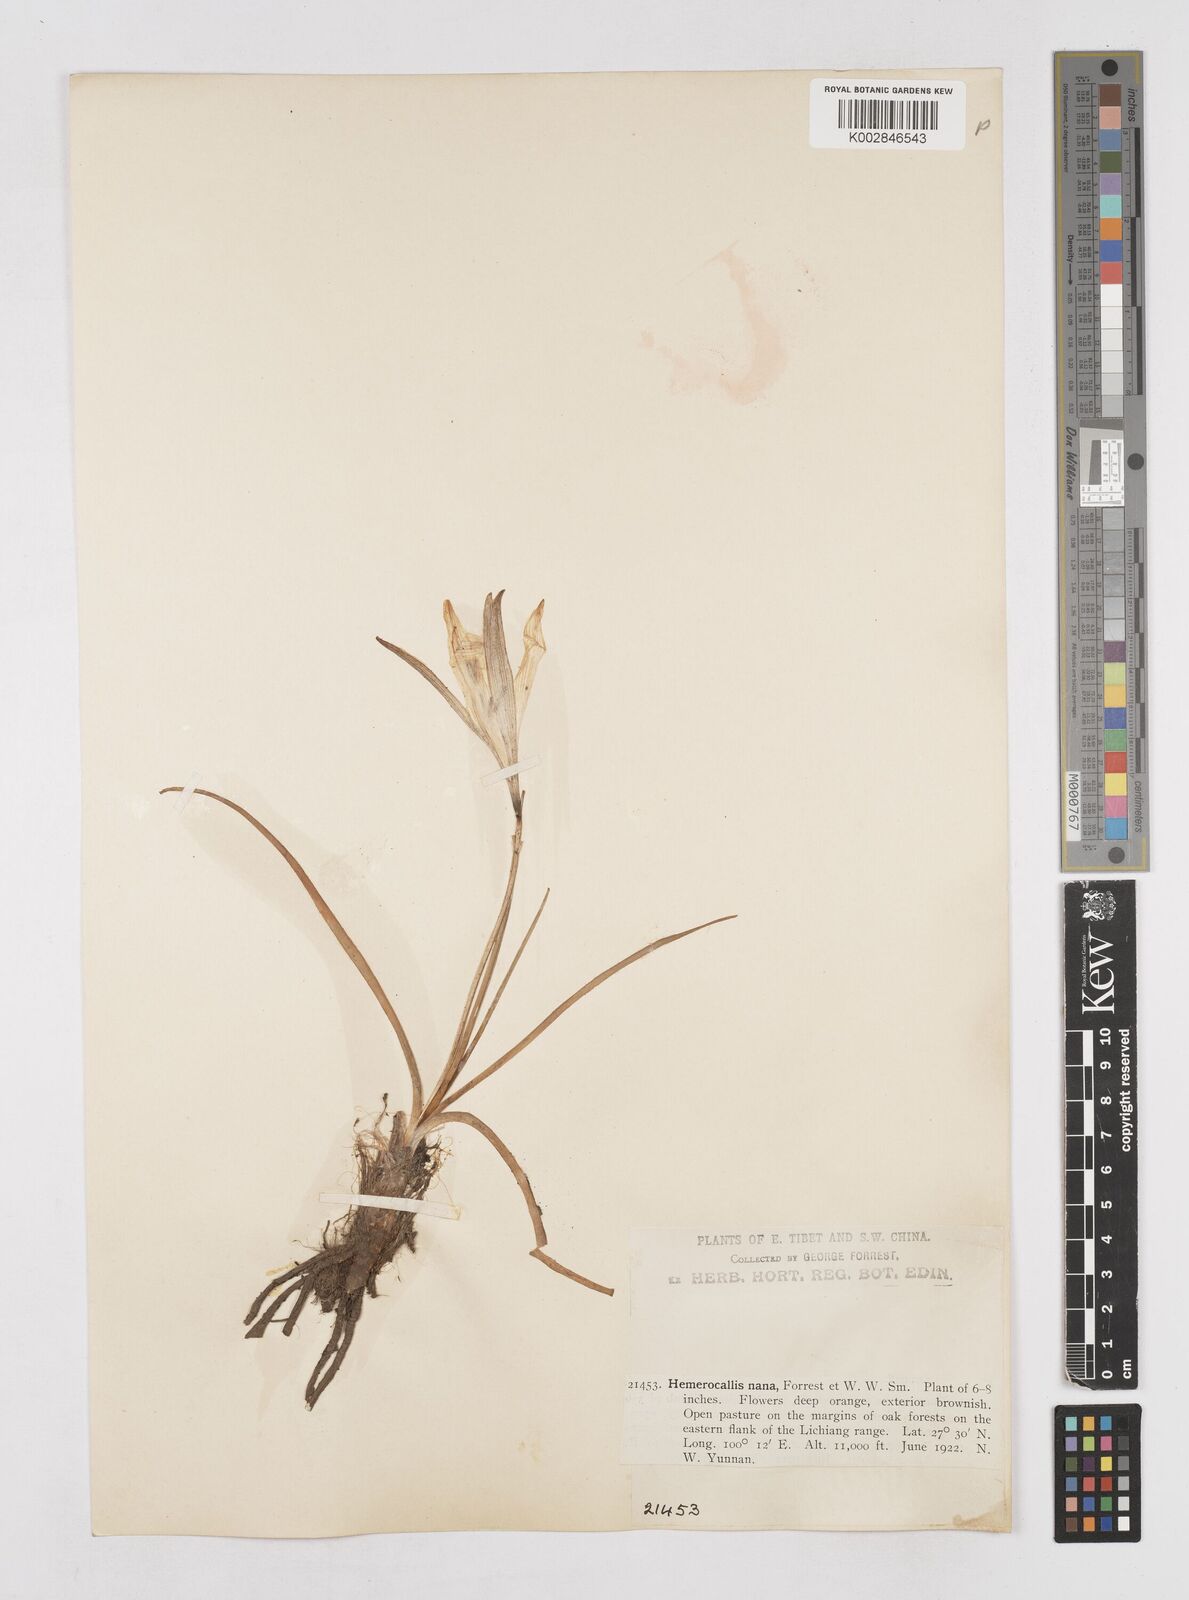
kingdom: Plantae
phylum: Tracheophyta
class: Liliopsida
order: Asparagales
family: Asphodelaceae
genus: Hemerocallis
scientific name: Hemerocallis nana
